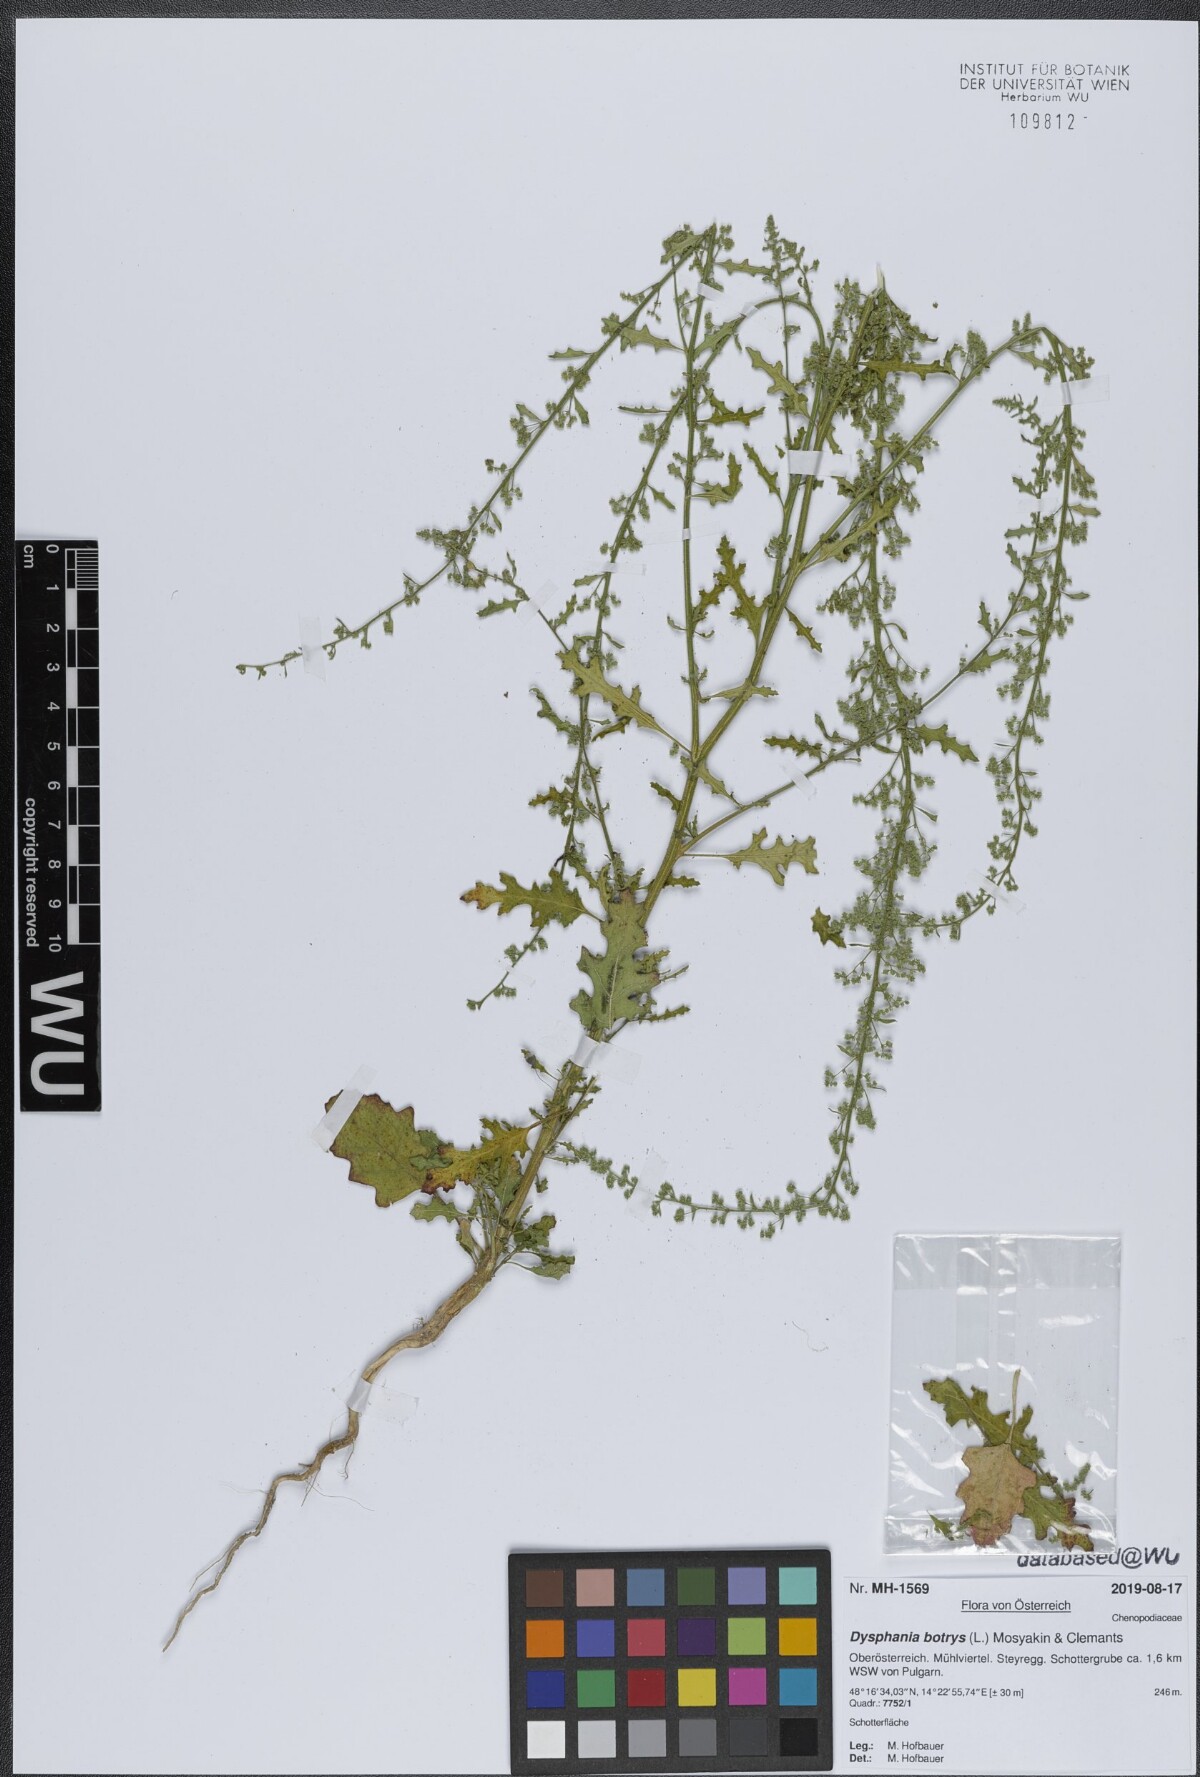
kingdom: Plantae
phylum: Tracheophyta
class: Magnoliopsida
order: Caryophyllales
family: Amaranthaceae
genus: Dysphania
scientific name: Dysphania botrys
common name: Feather-geranium
